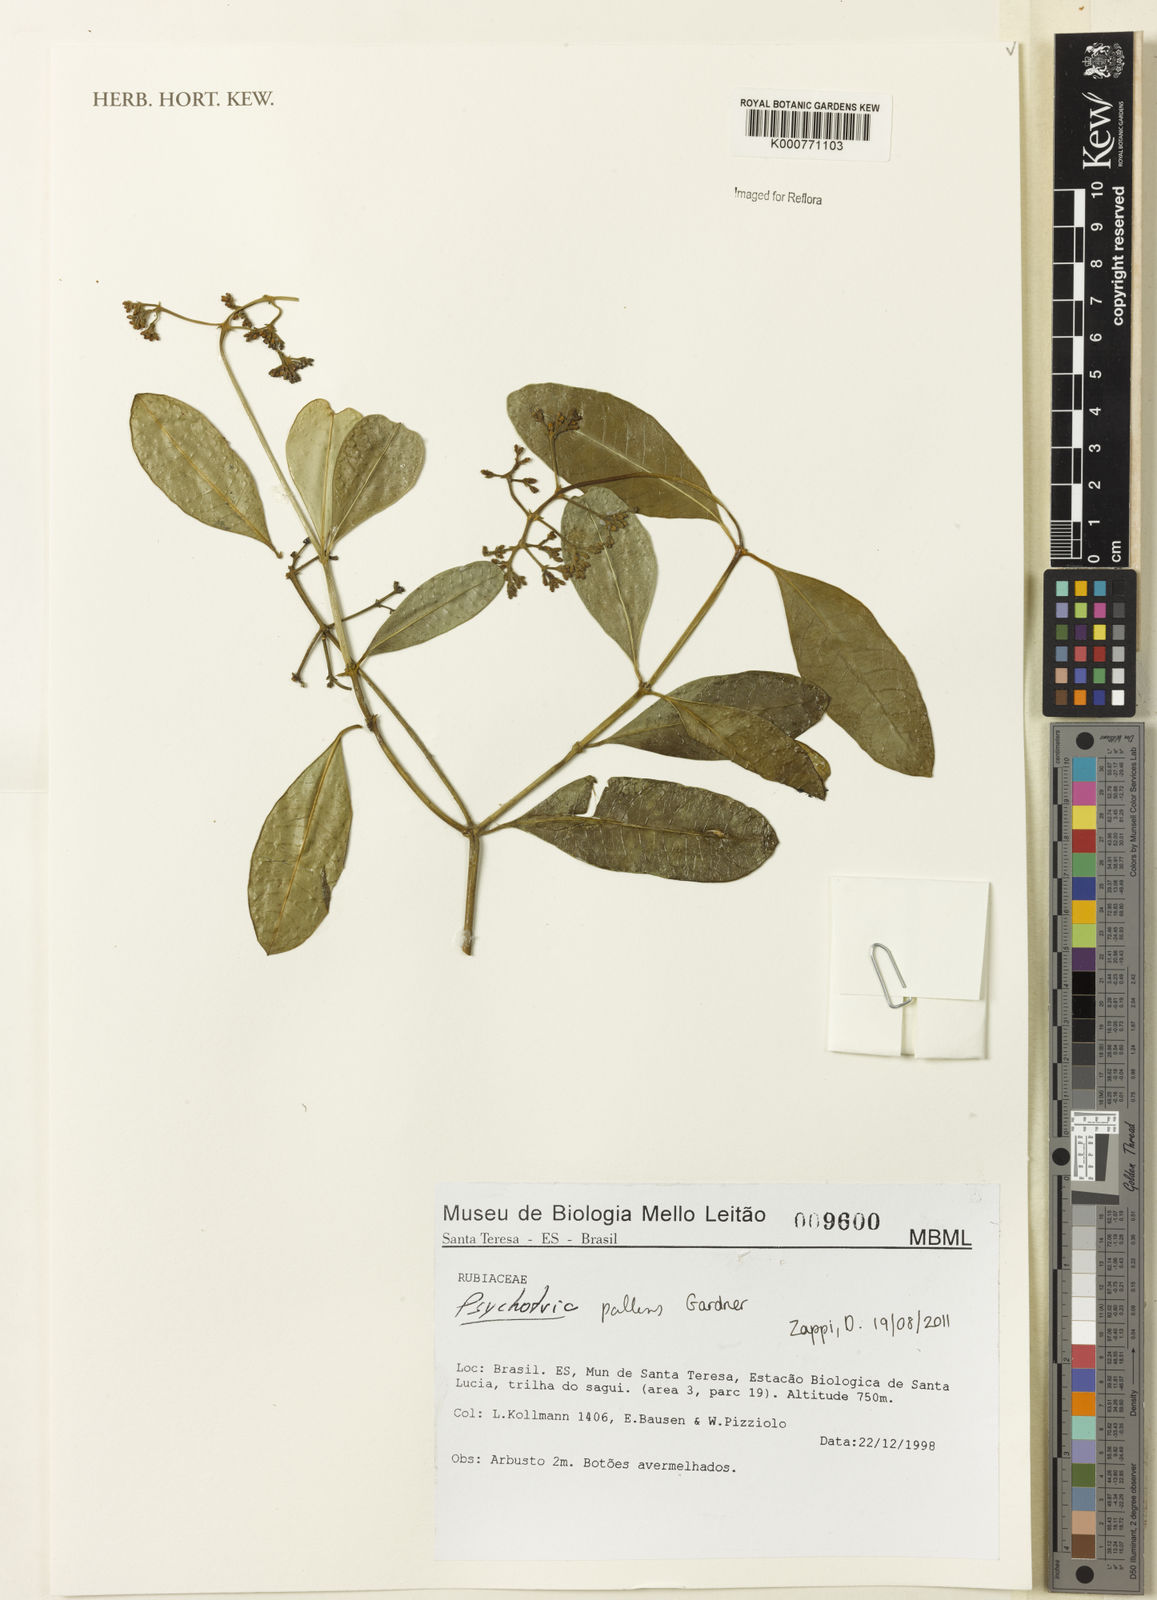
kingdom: Plantae
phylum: Tracheophyta
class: Magnoliopsida
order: Gentianales
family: Rubiaceae
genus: Psychotria
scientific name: Psychotria pallens
